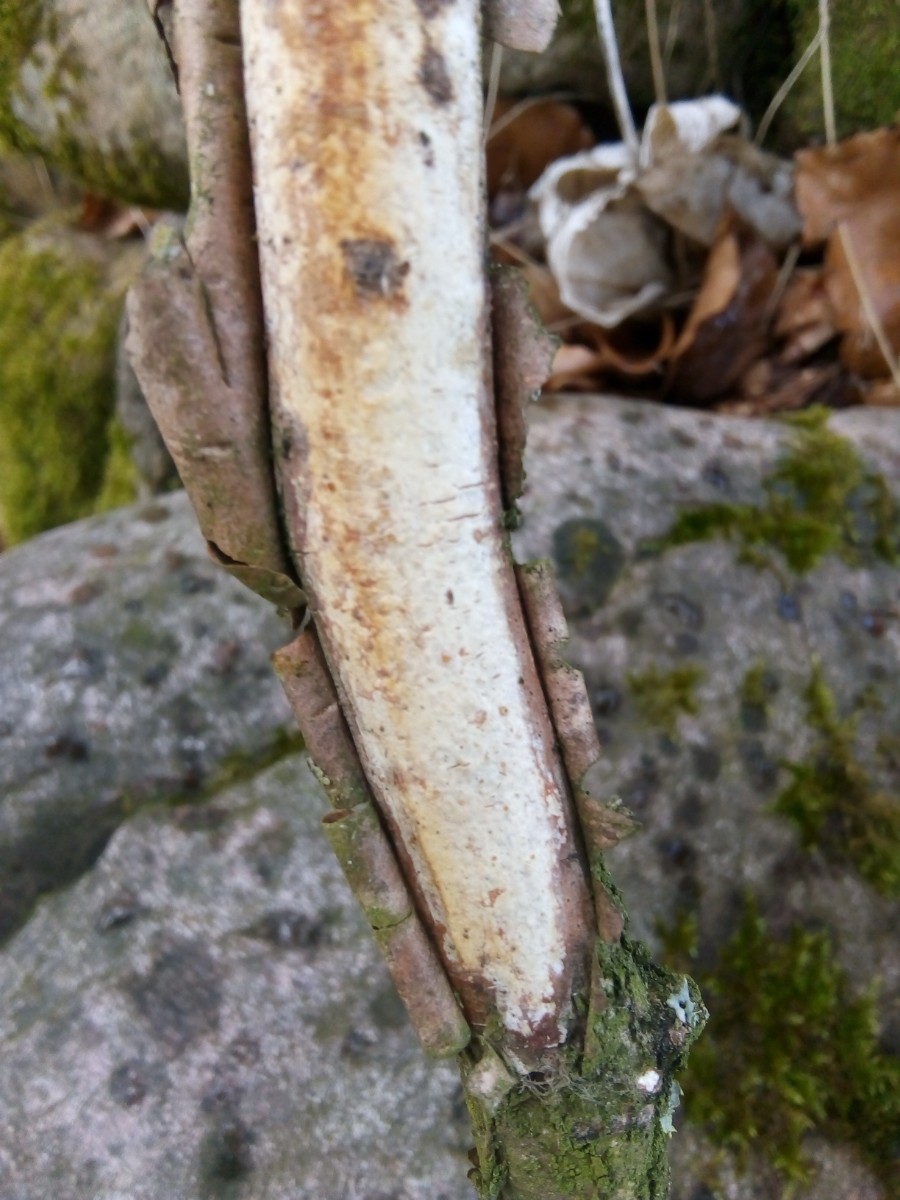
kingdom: Fungi
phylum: Basidiomycota
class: Agaricomycetes
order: Corticiales
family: Vuilleminiaceae
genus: Vuilleminia
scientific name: Vuilleminia coryli
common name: hassel-barksprænger
